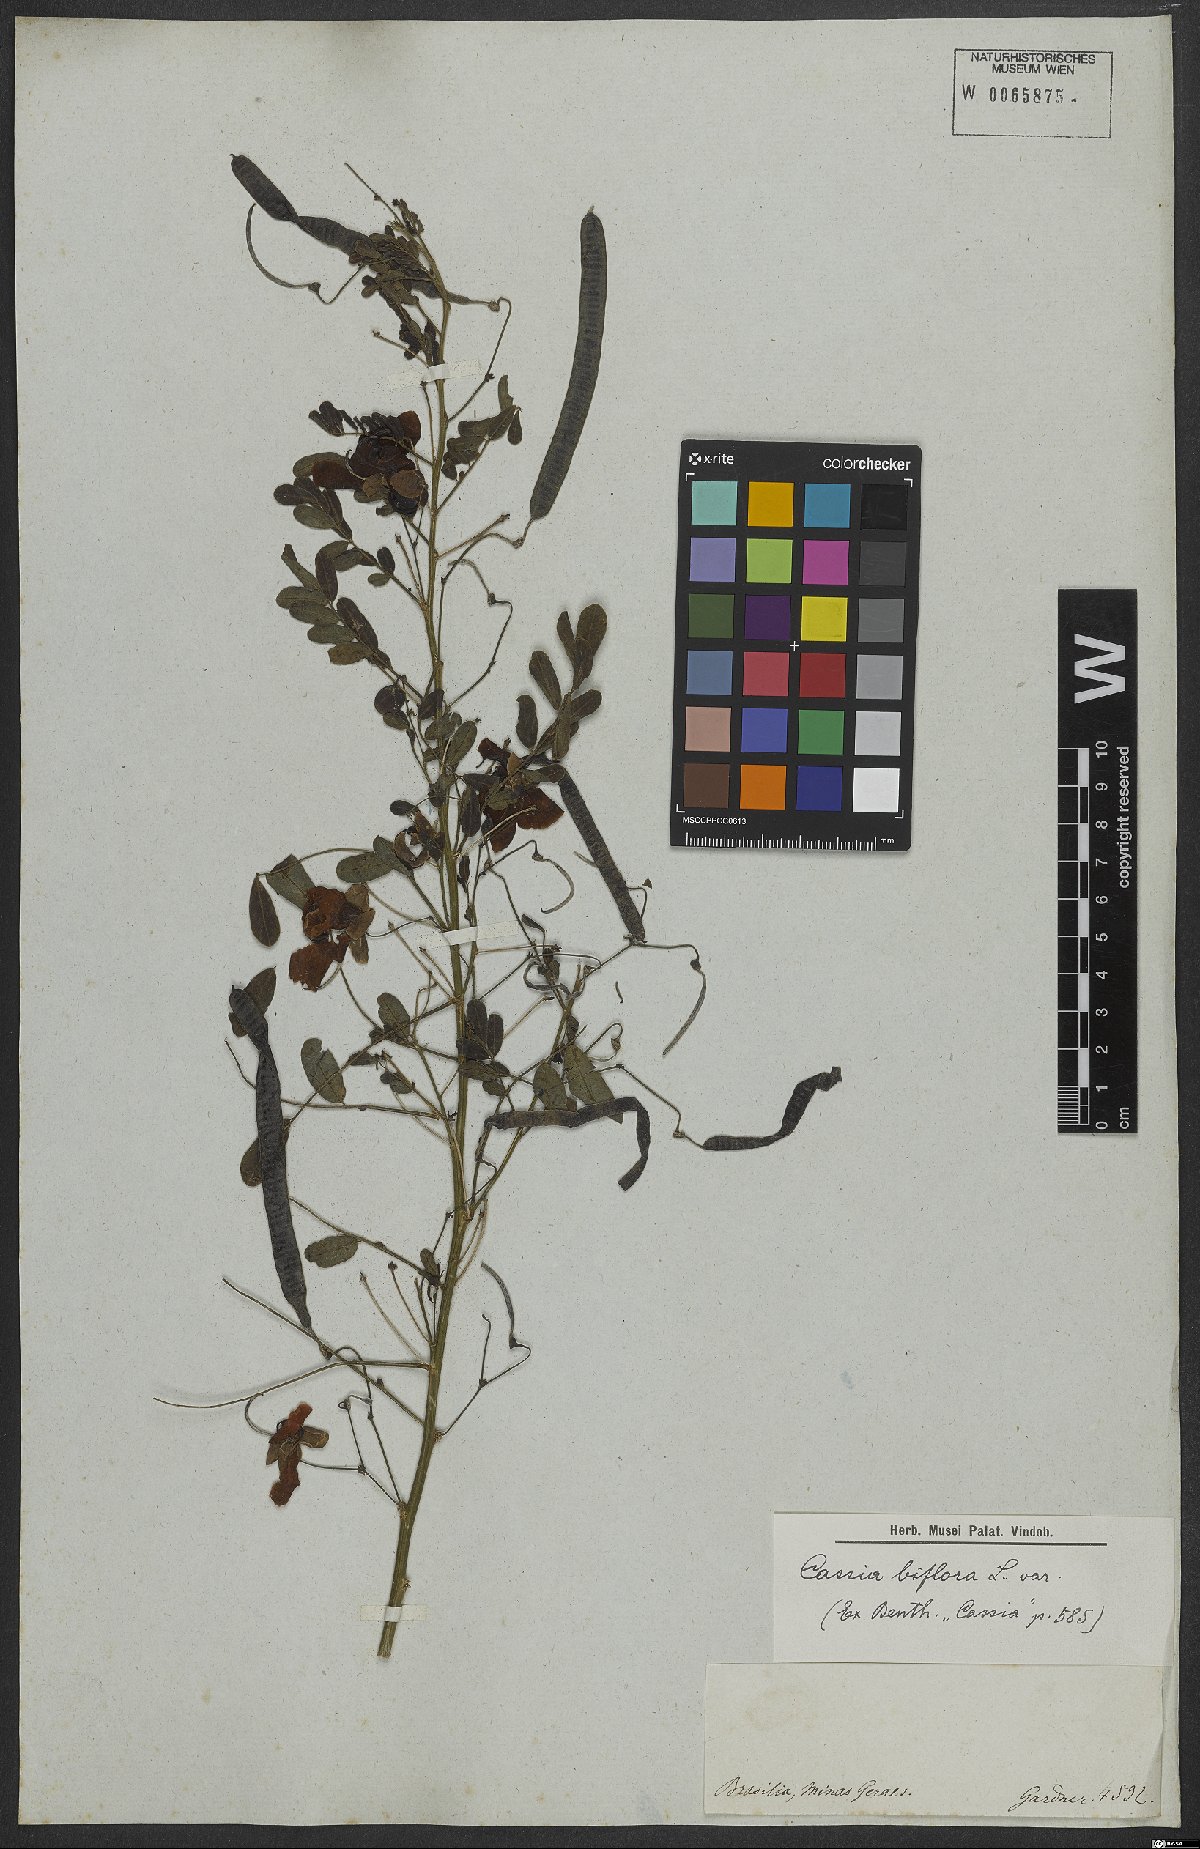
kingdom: Plantae
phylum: Tracheophyta
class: Magnoliopsida
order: Fabales
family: Fabaceae
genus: Senna
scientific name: Senna pallida
